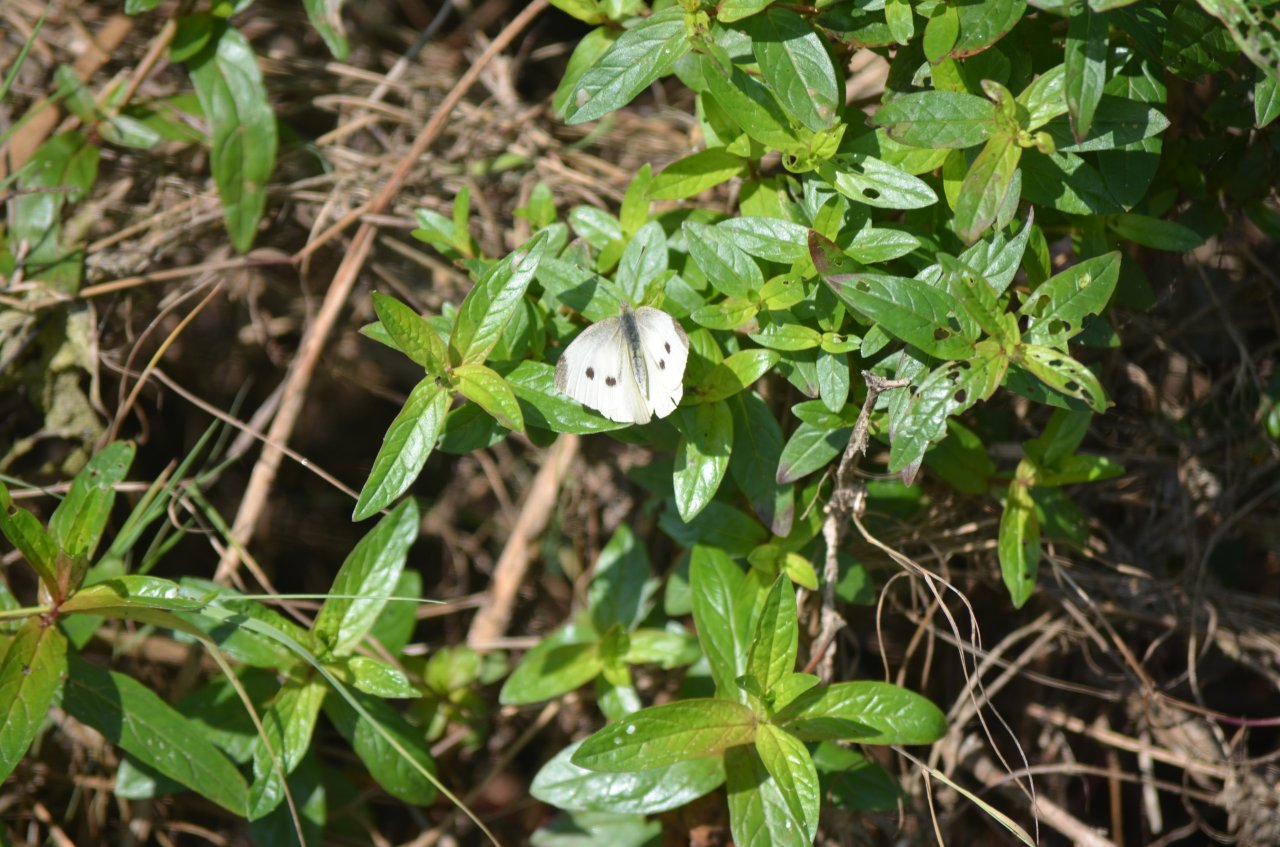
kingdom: Animalia
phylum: Arthropoda
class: Insecta
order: Lepidoptera
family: Pieridae
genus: Pieris
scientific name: Pieris rapae
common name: Cabbage White
